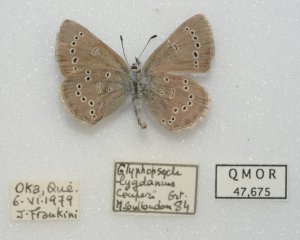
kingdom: Animalia
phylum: Arthropoda
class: Insecta
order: Lepidoptera
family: Lycaenidae
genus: Glaucopsyche
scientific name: Glaucopsyche lygdamus
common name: Silvery Blue
